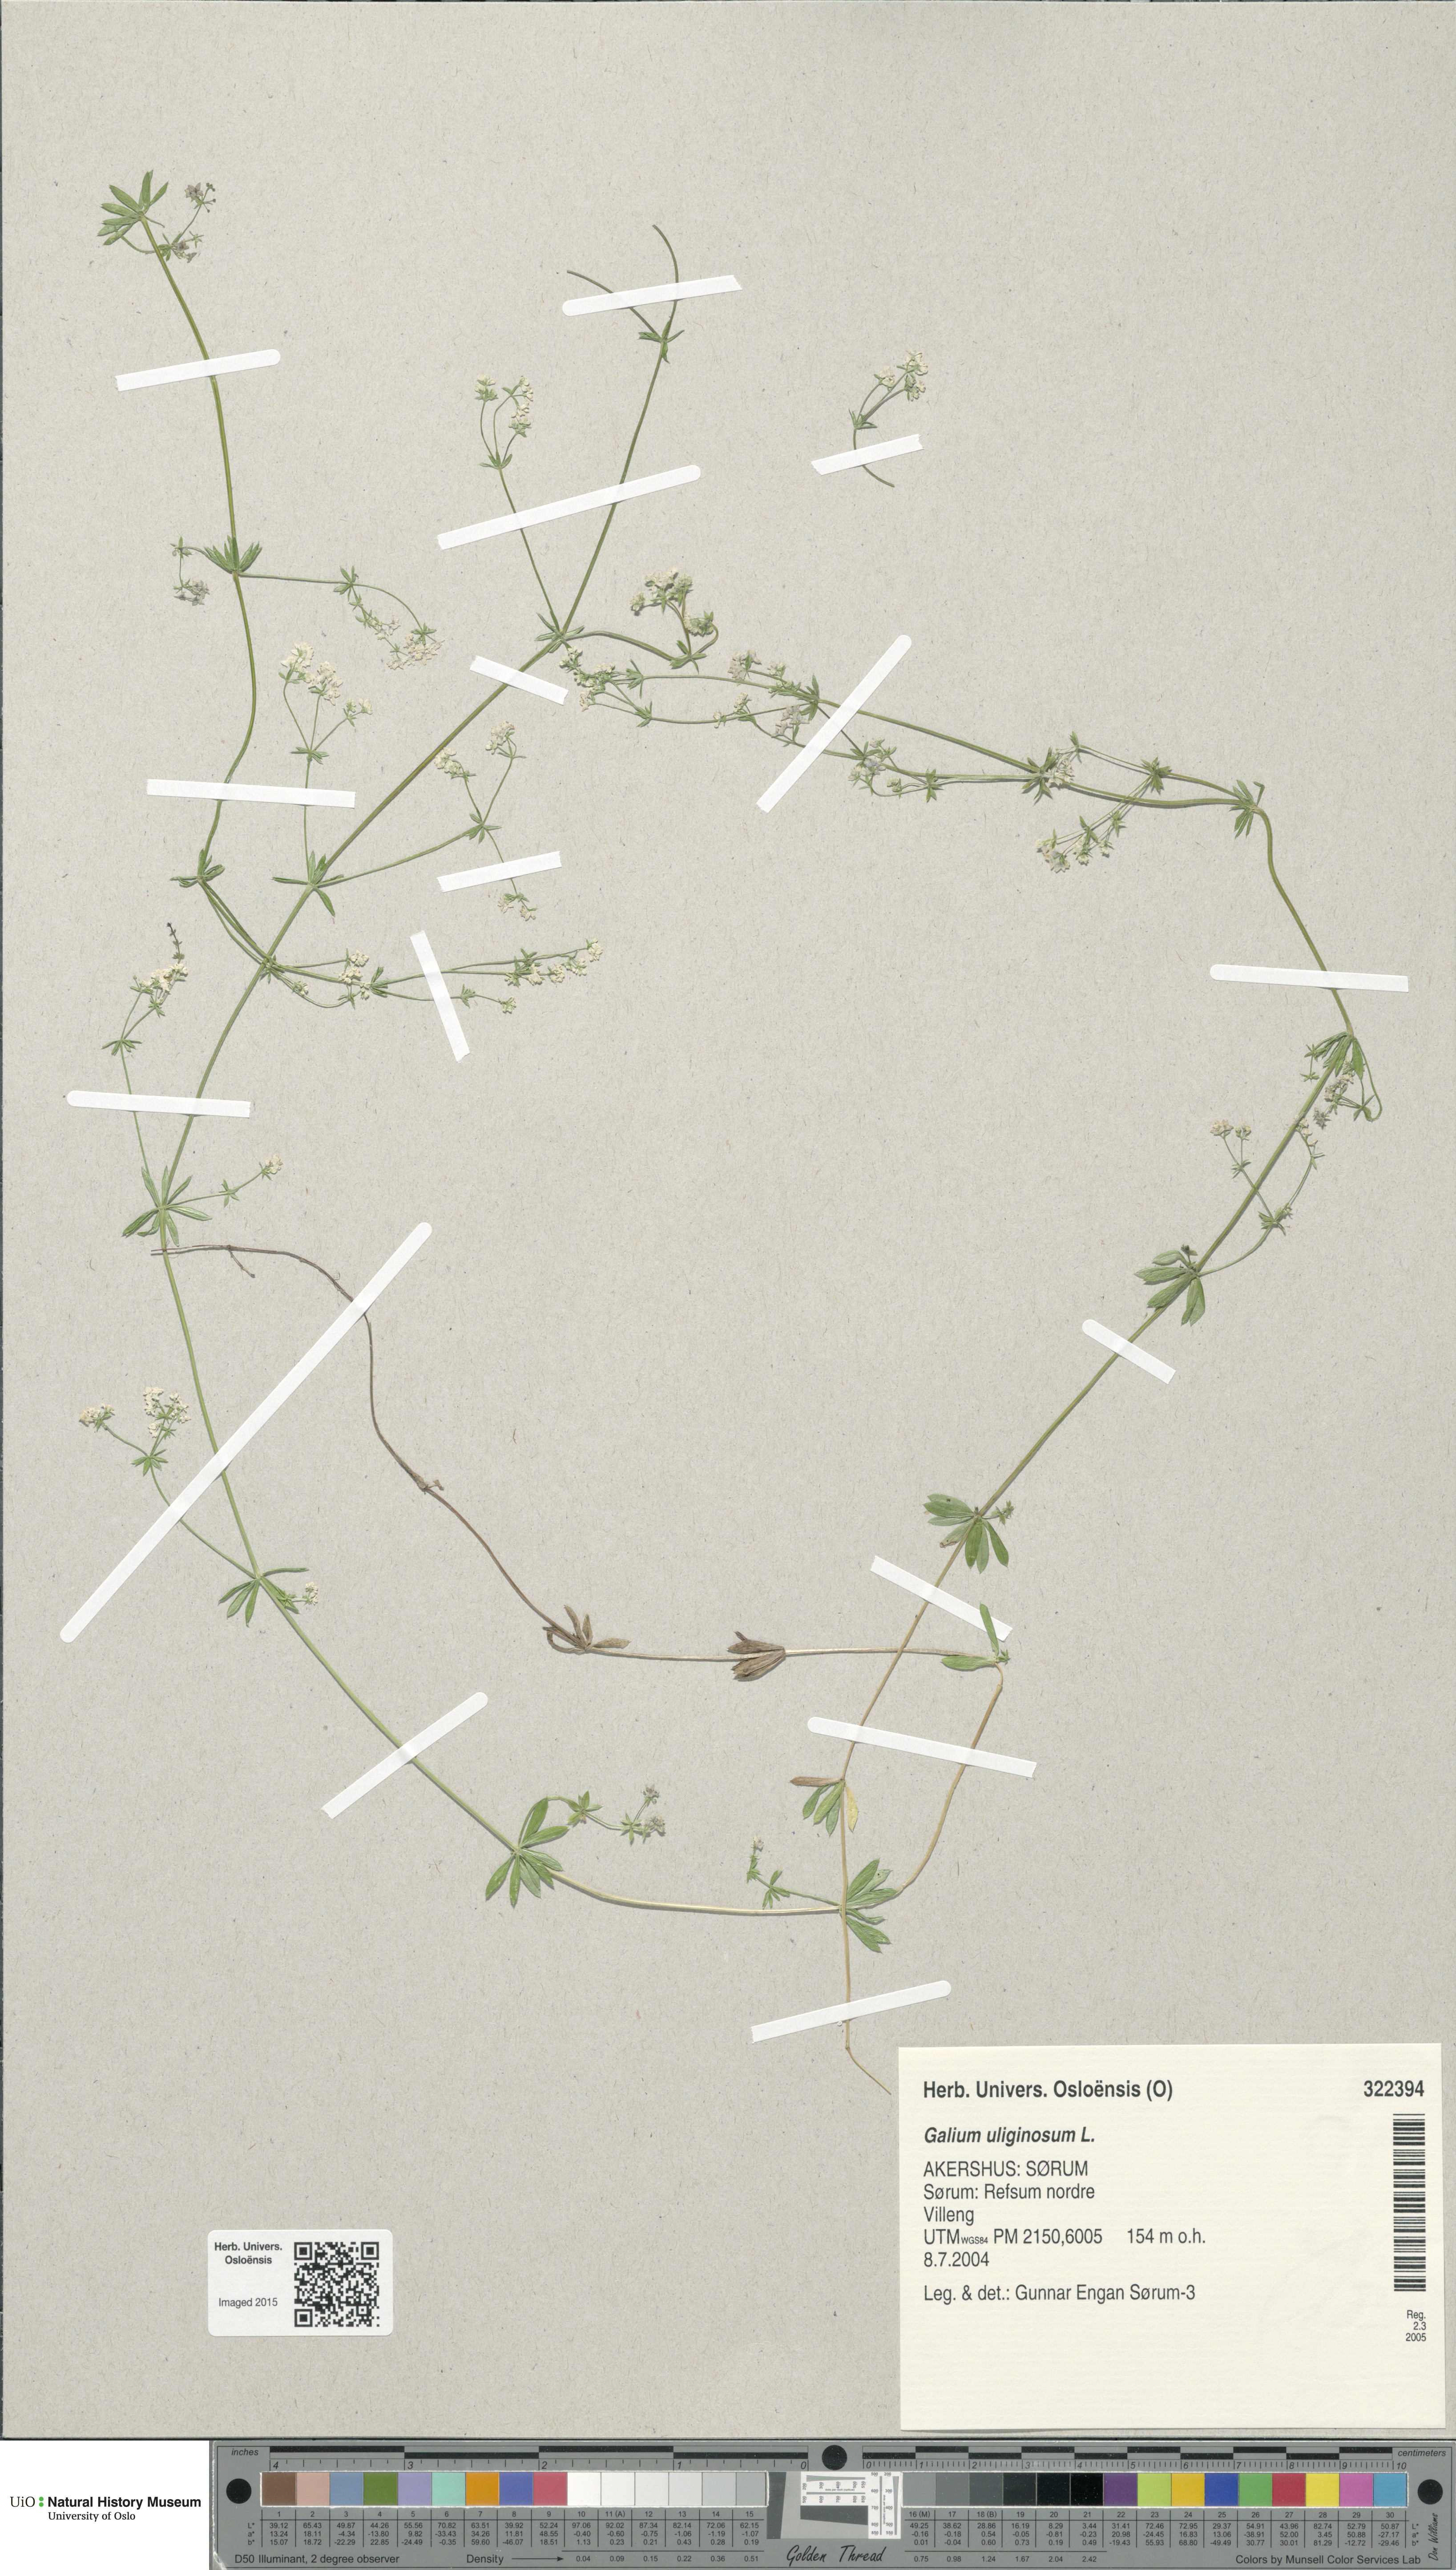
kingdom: Plantae
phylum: Tracheophyta
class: Magnoliopsida
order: Gentianales
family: Rubiaceae
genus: Galium
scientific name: Galium uliginosum
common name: Fen bedstraw
